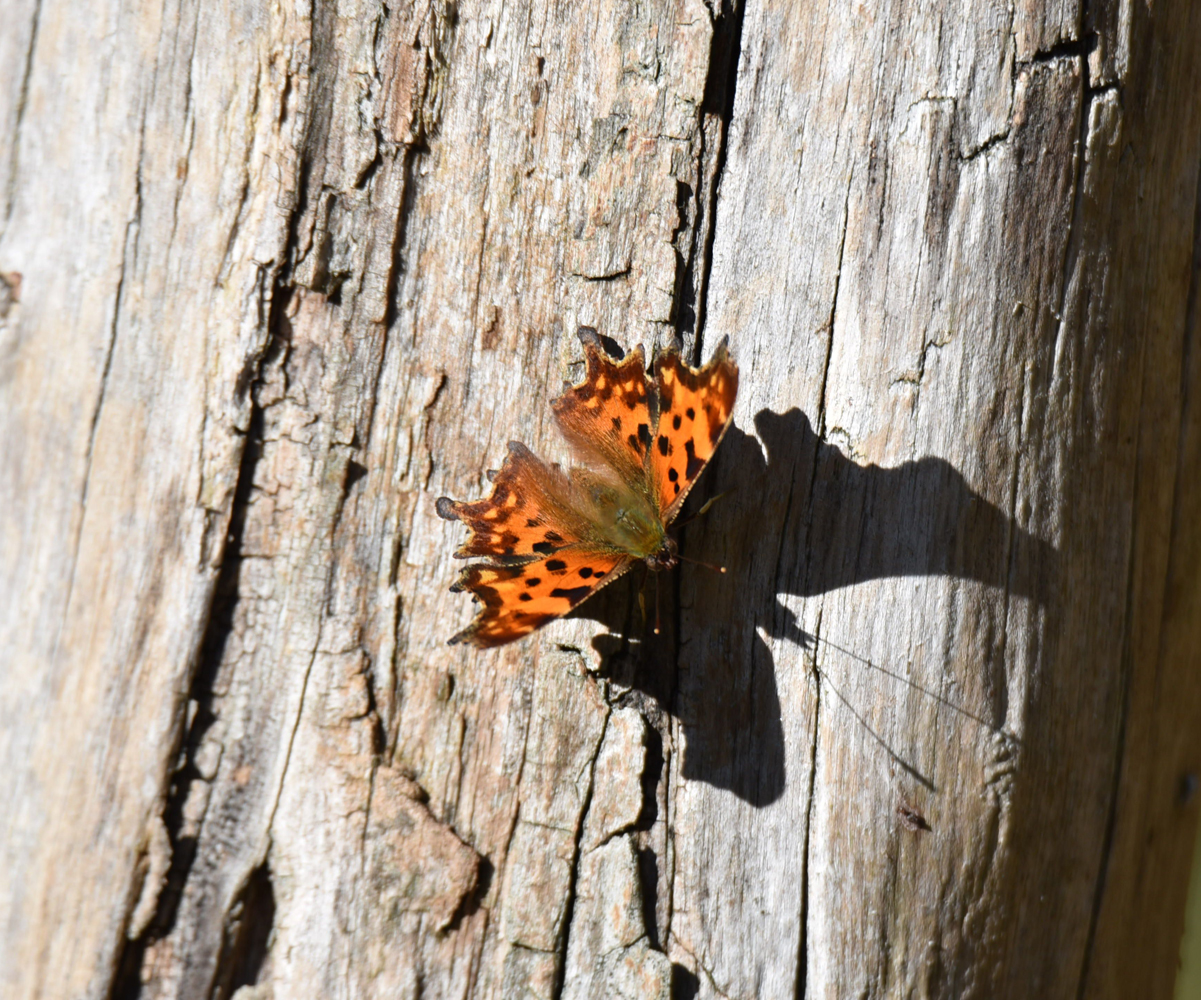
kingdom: Animalia
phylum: Arthropoda
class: Insecta
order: Lepidoptera
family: Nymphalidae
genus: Polygonia
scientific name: Polygonia c-album
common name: Comma
